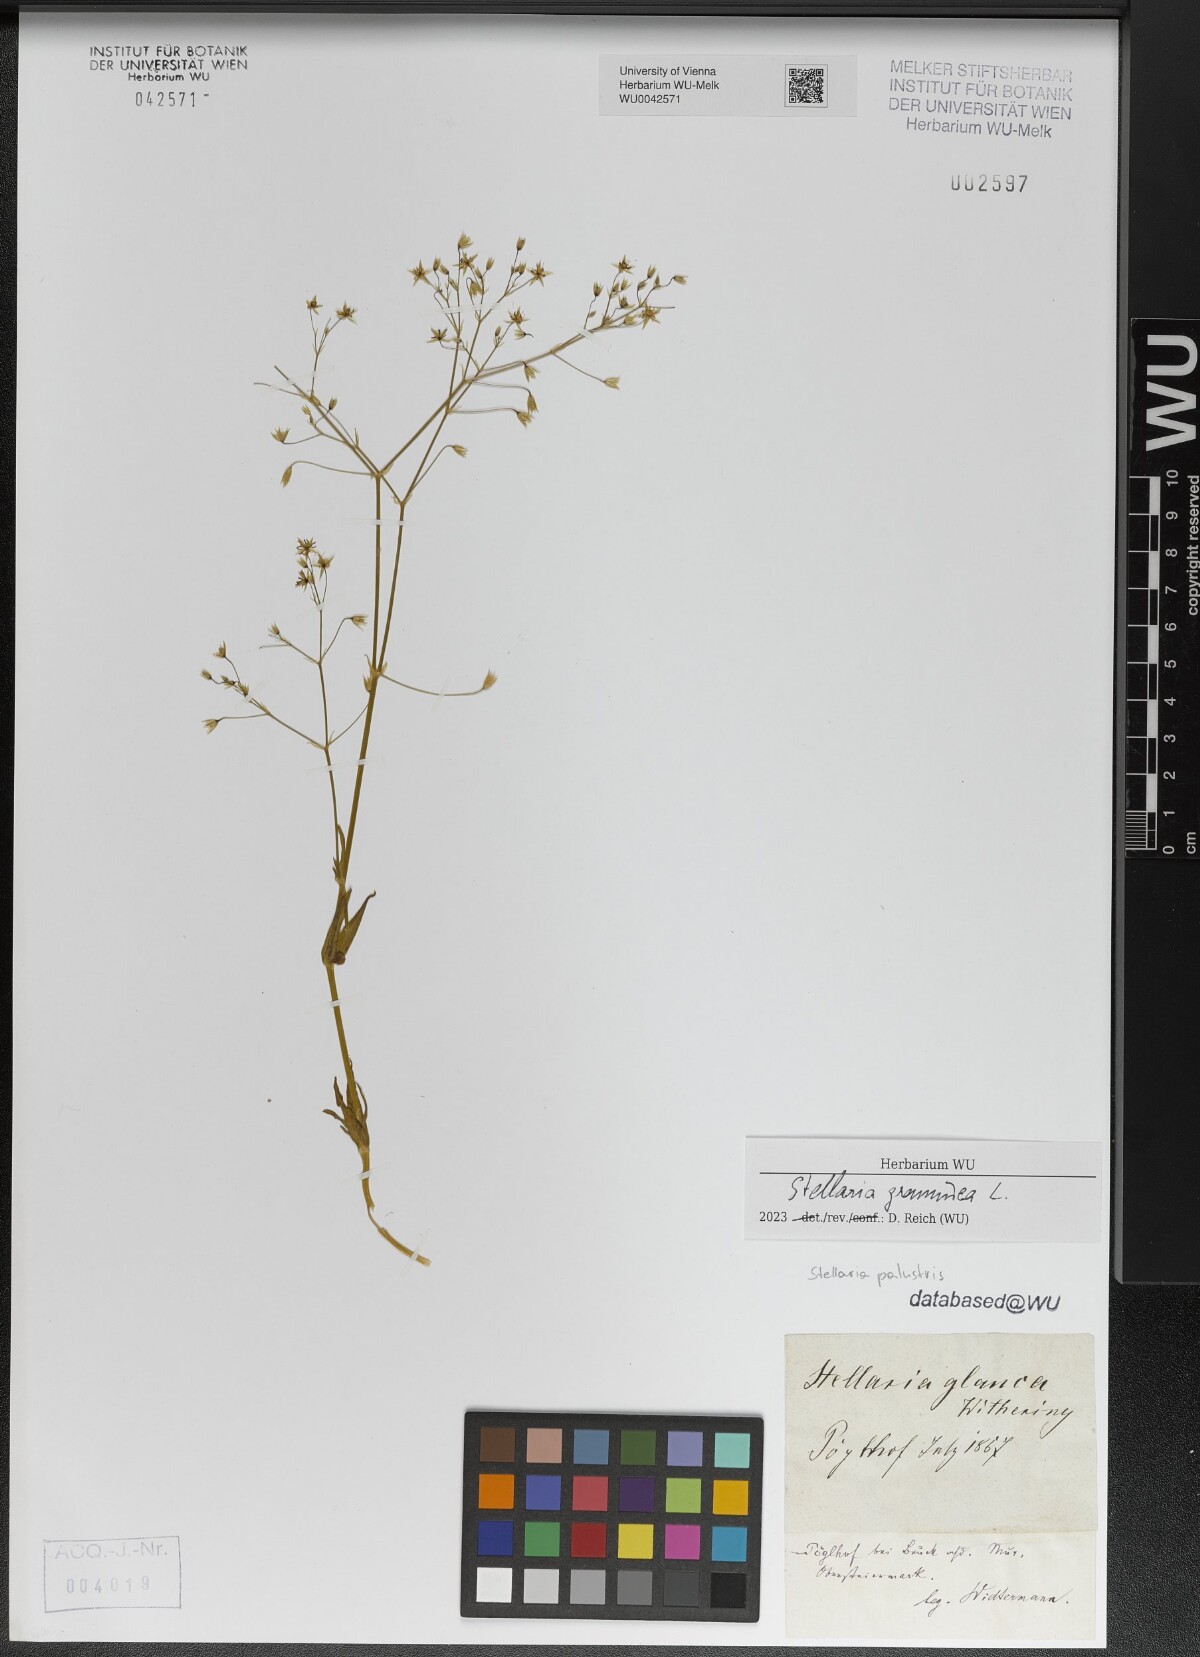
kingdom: Plantae
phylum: Tracheophyta
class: Magnoliopsida
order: Caryophyllales
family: Caryophyllaceae
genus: Stellaria
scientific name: Stellaria graminea
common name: Grass-like starwort
